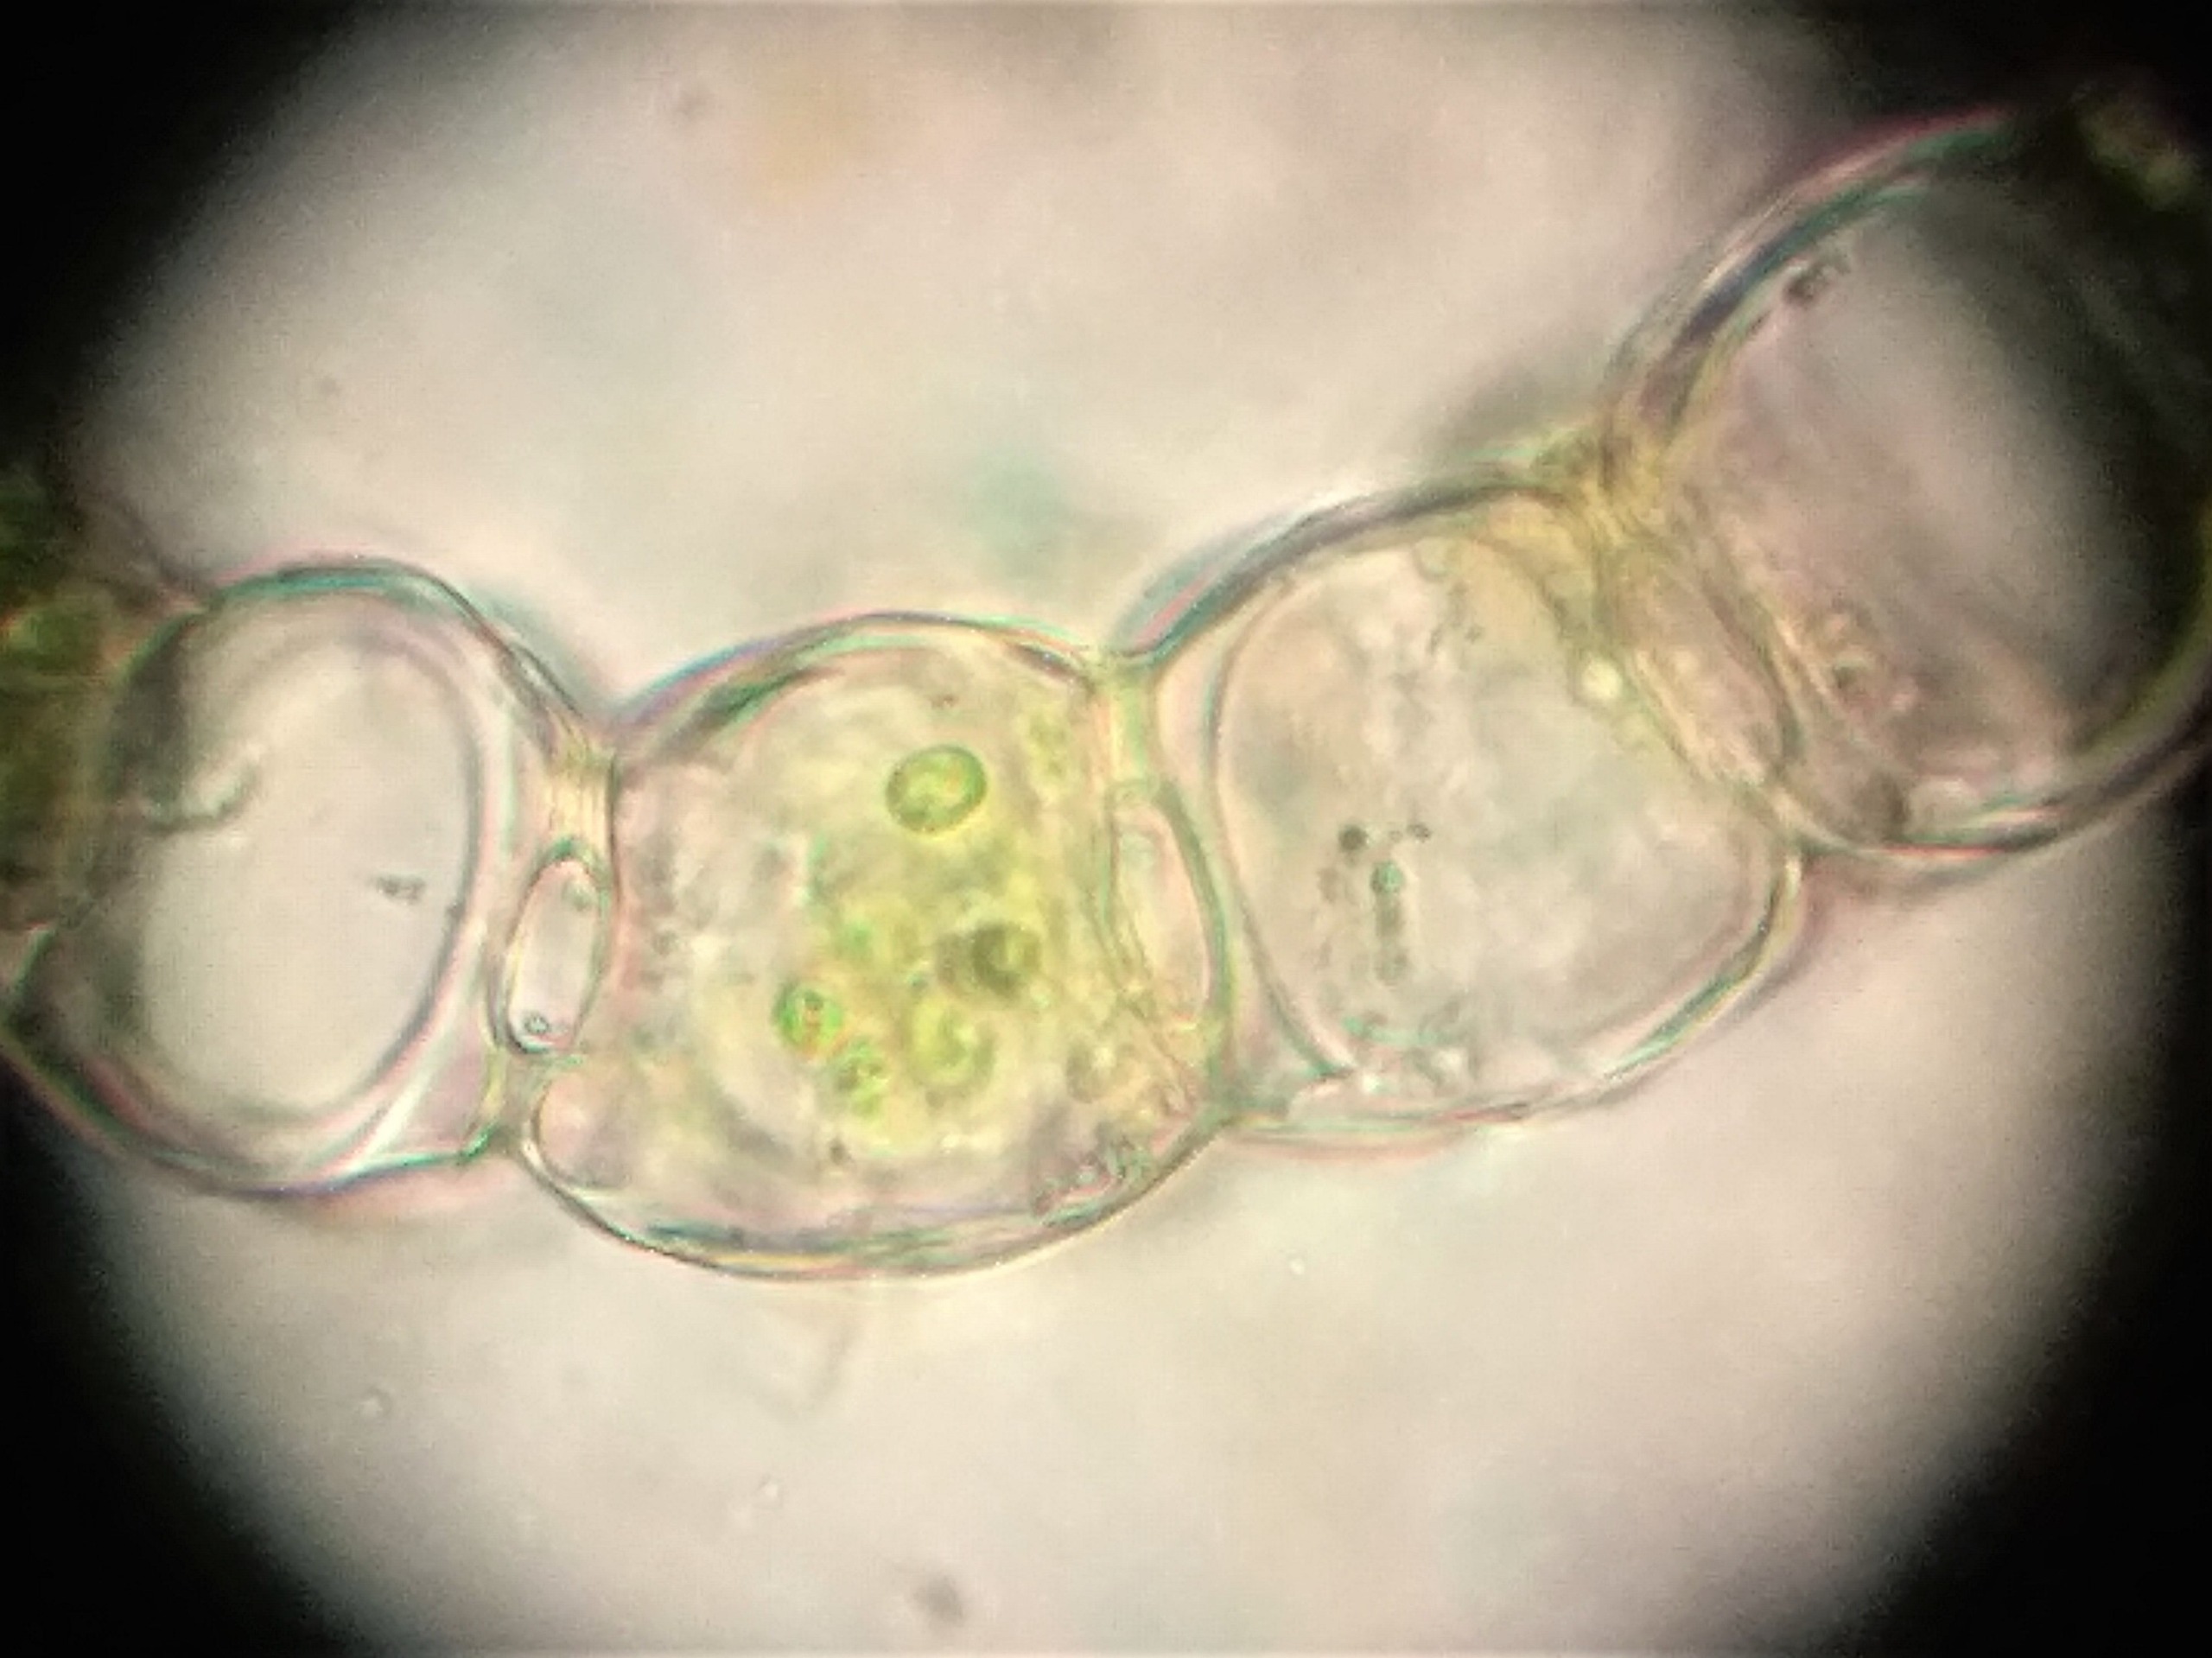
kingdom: Plantae
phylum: Bryophyta
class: Sphagnopsida
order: Sphagnales
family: Sphagnaceae
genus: Sphagnum
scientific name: Sphagnum centrale
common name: Midtstillet tørvemos
